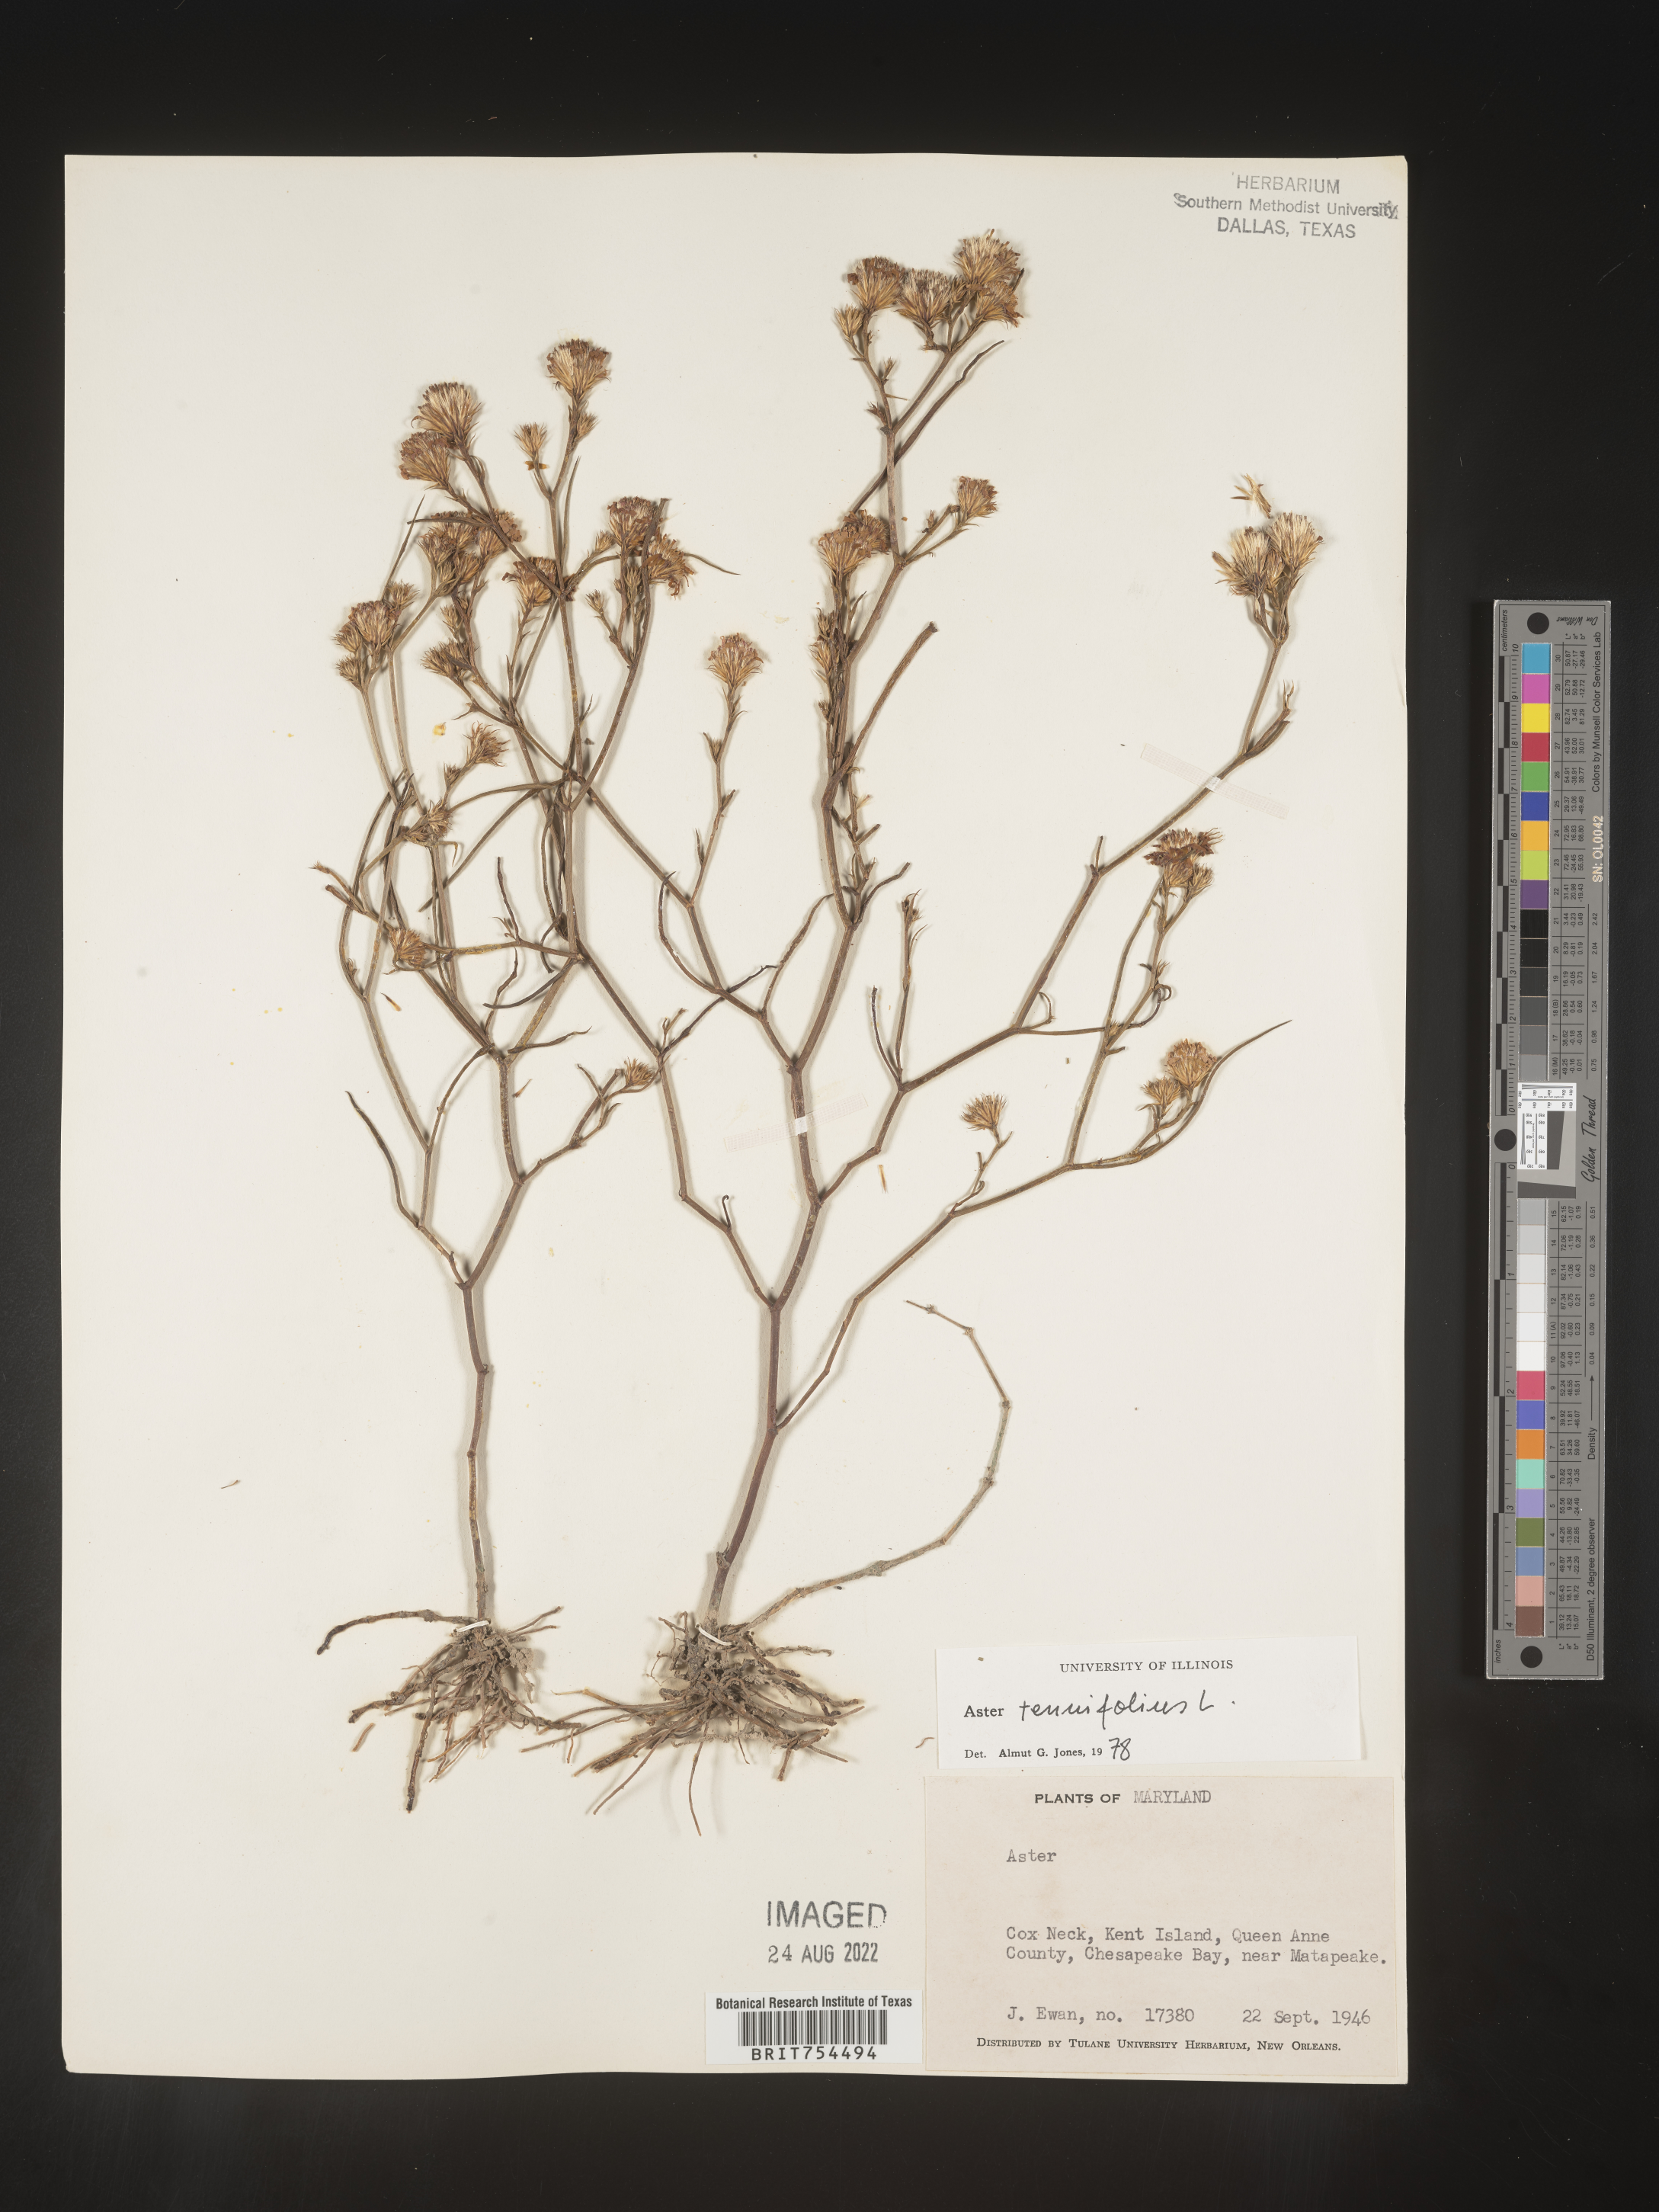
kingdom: Plantae
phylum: Tracheophyta
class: Magnoliopsida
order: Asterales
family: Asteraceae
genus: Symphyotrichum
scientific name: Symphyotrichum tenuifolium
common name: Perennial salt-marsh aster
